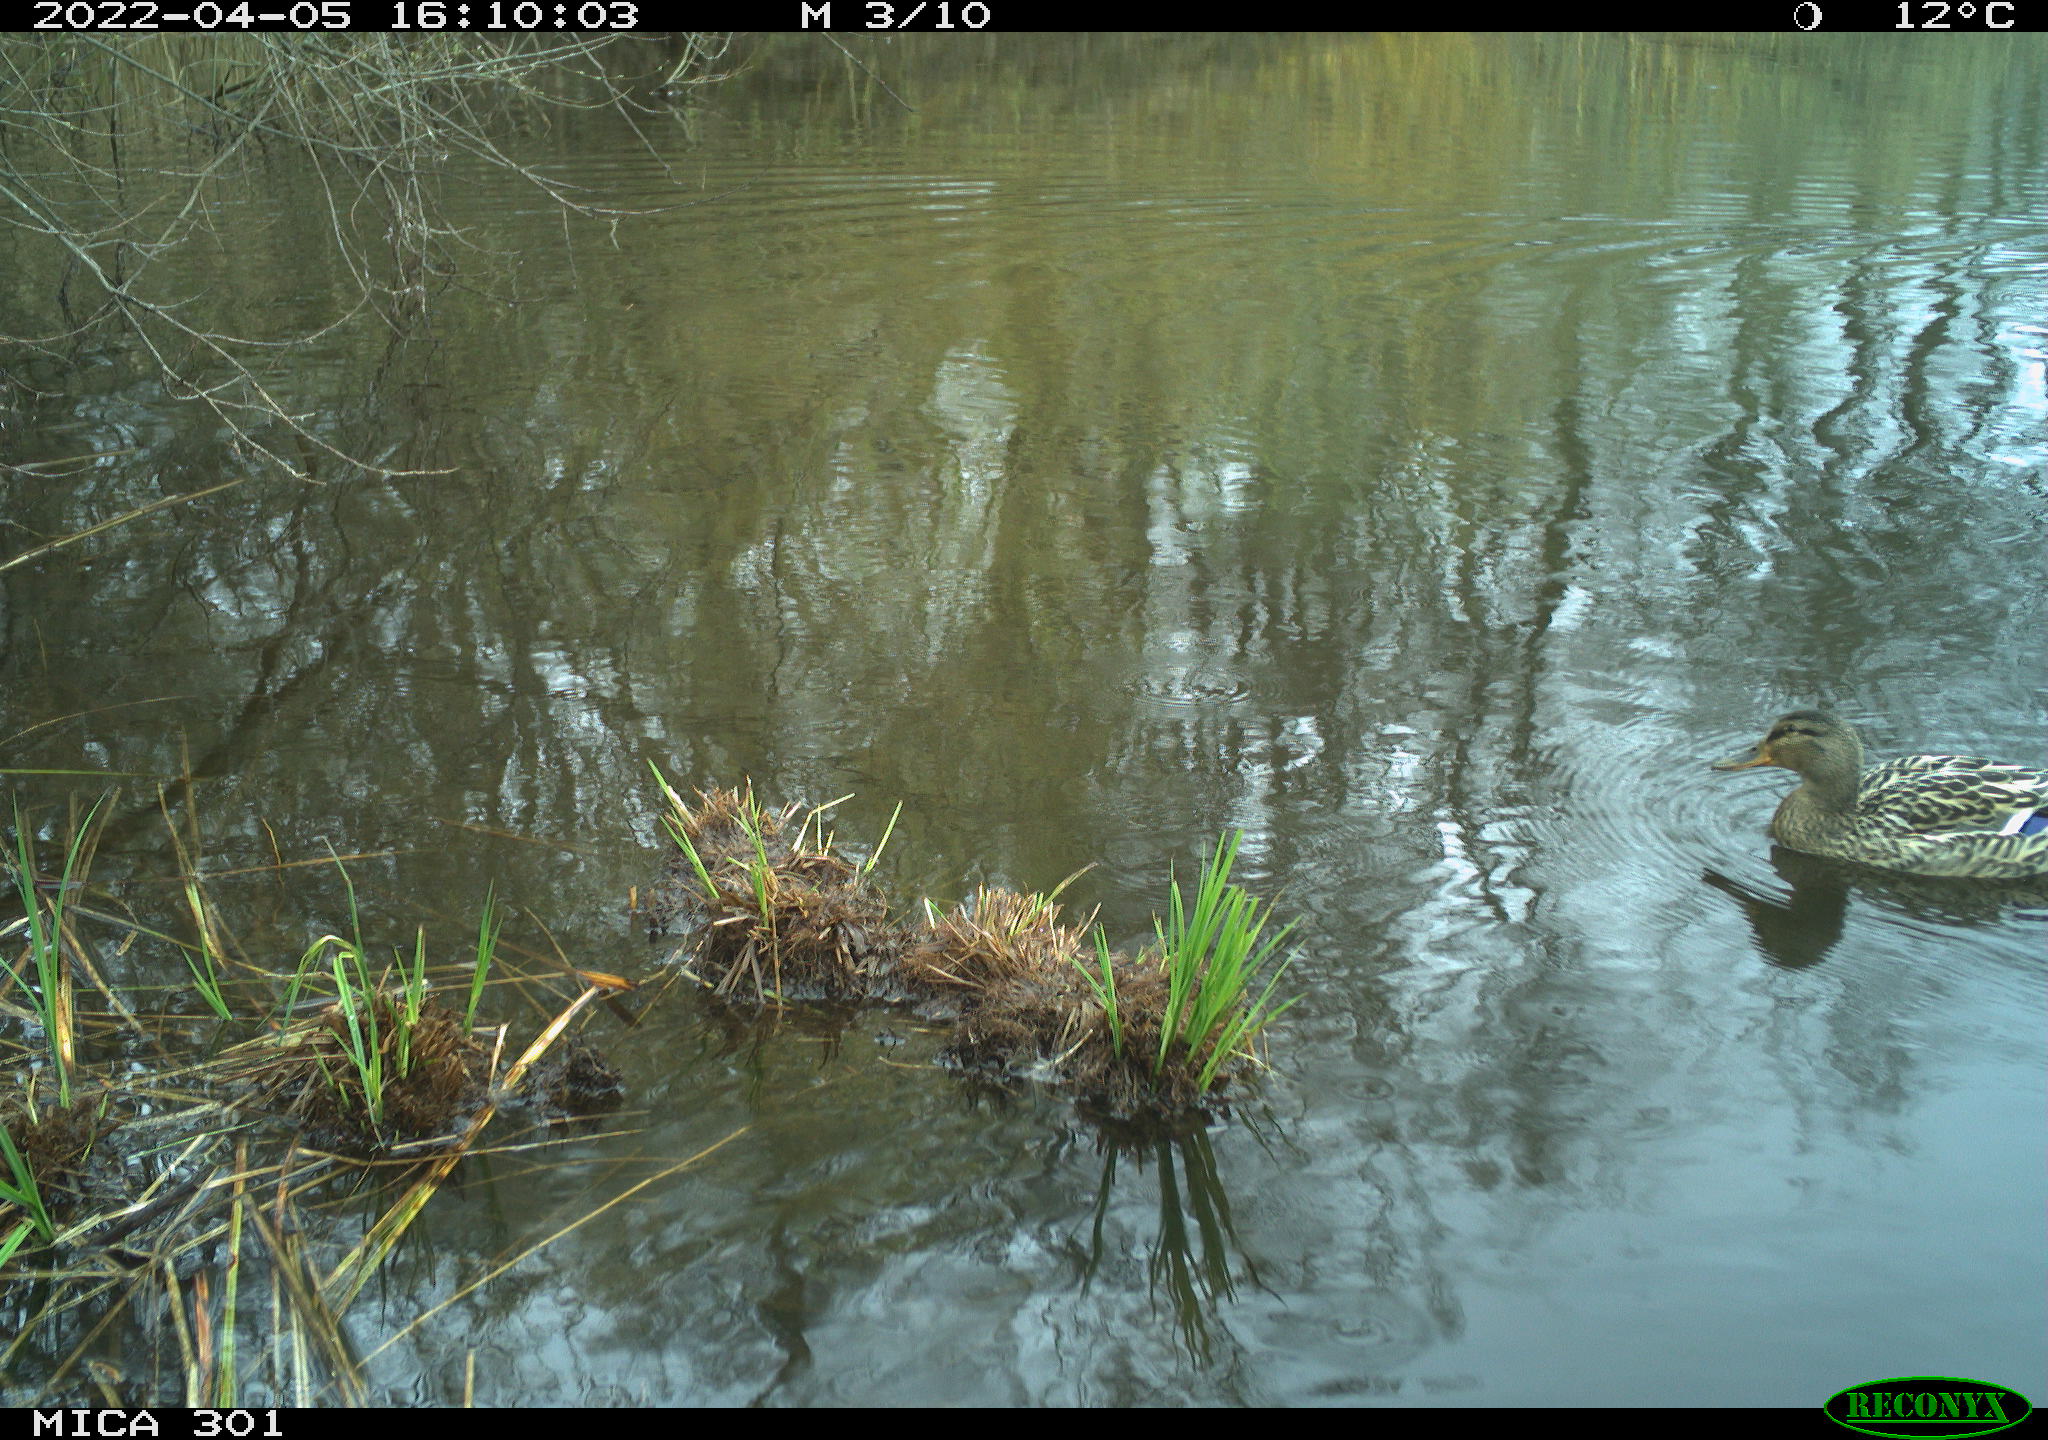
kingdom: Animalia
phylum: Chordata
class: Aves
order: Anseriformes
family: Anatidae
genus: Mareca
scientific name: Mareca strepera
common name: Gadwall
